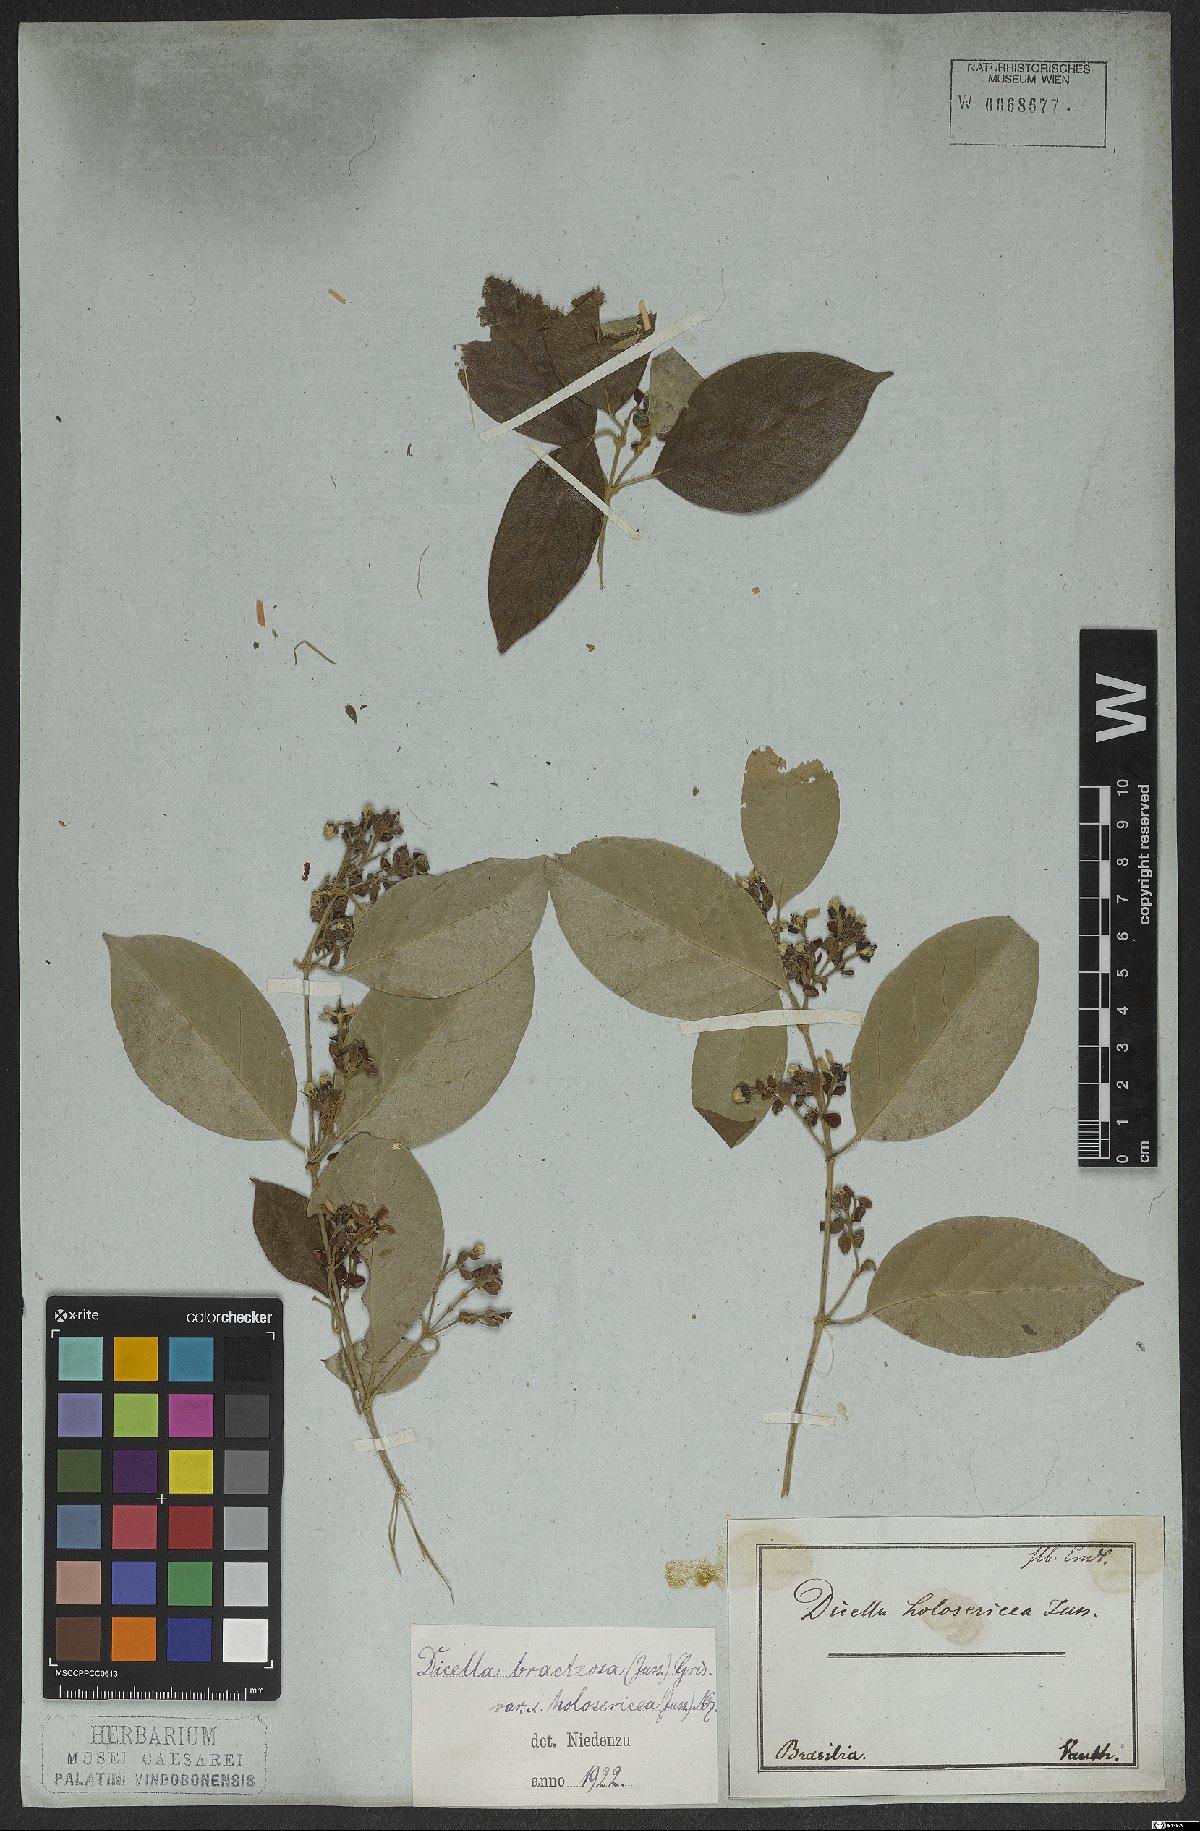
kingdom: Plantae
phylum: Tracheophyta
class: Magnoliopsida
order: Malpighiales
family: Malpighiaceae
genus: Dicella
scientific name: Dicella bracteosa
